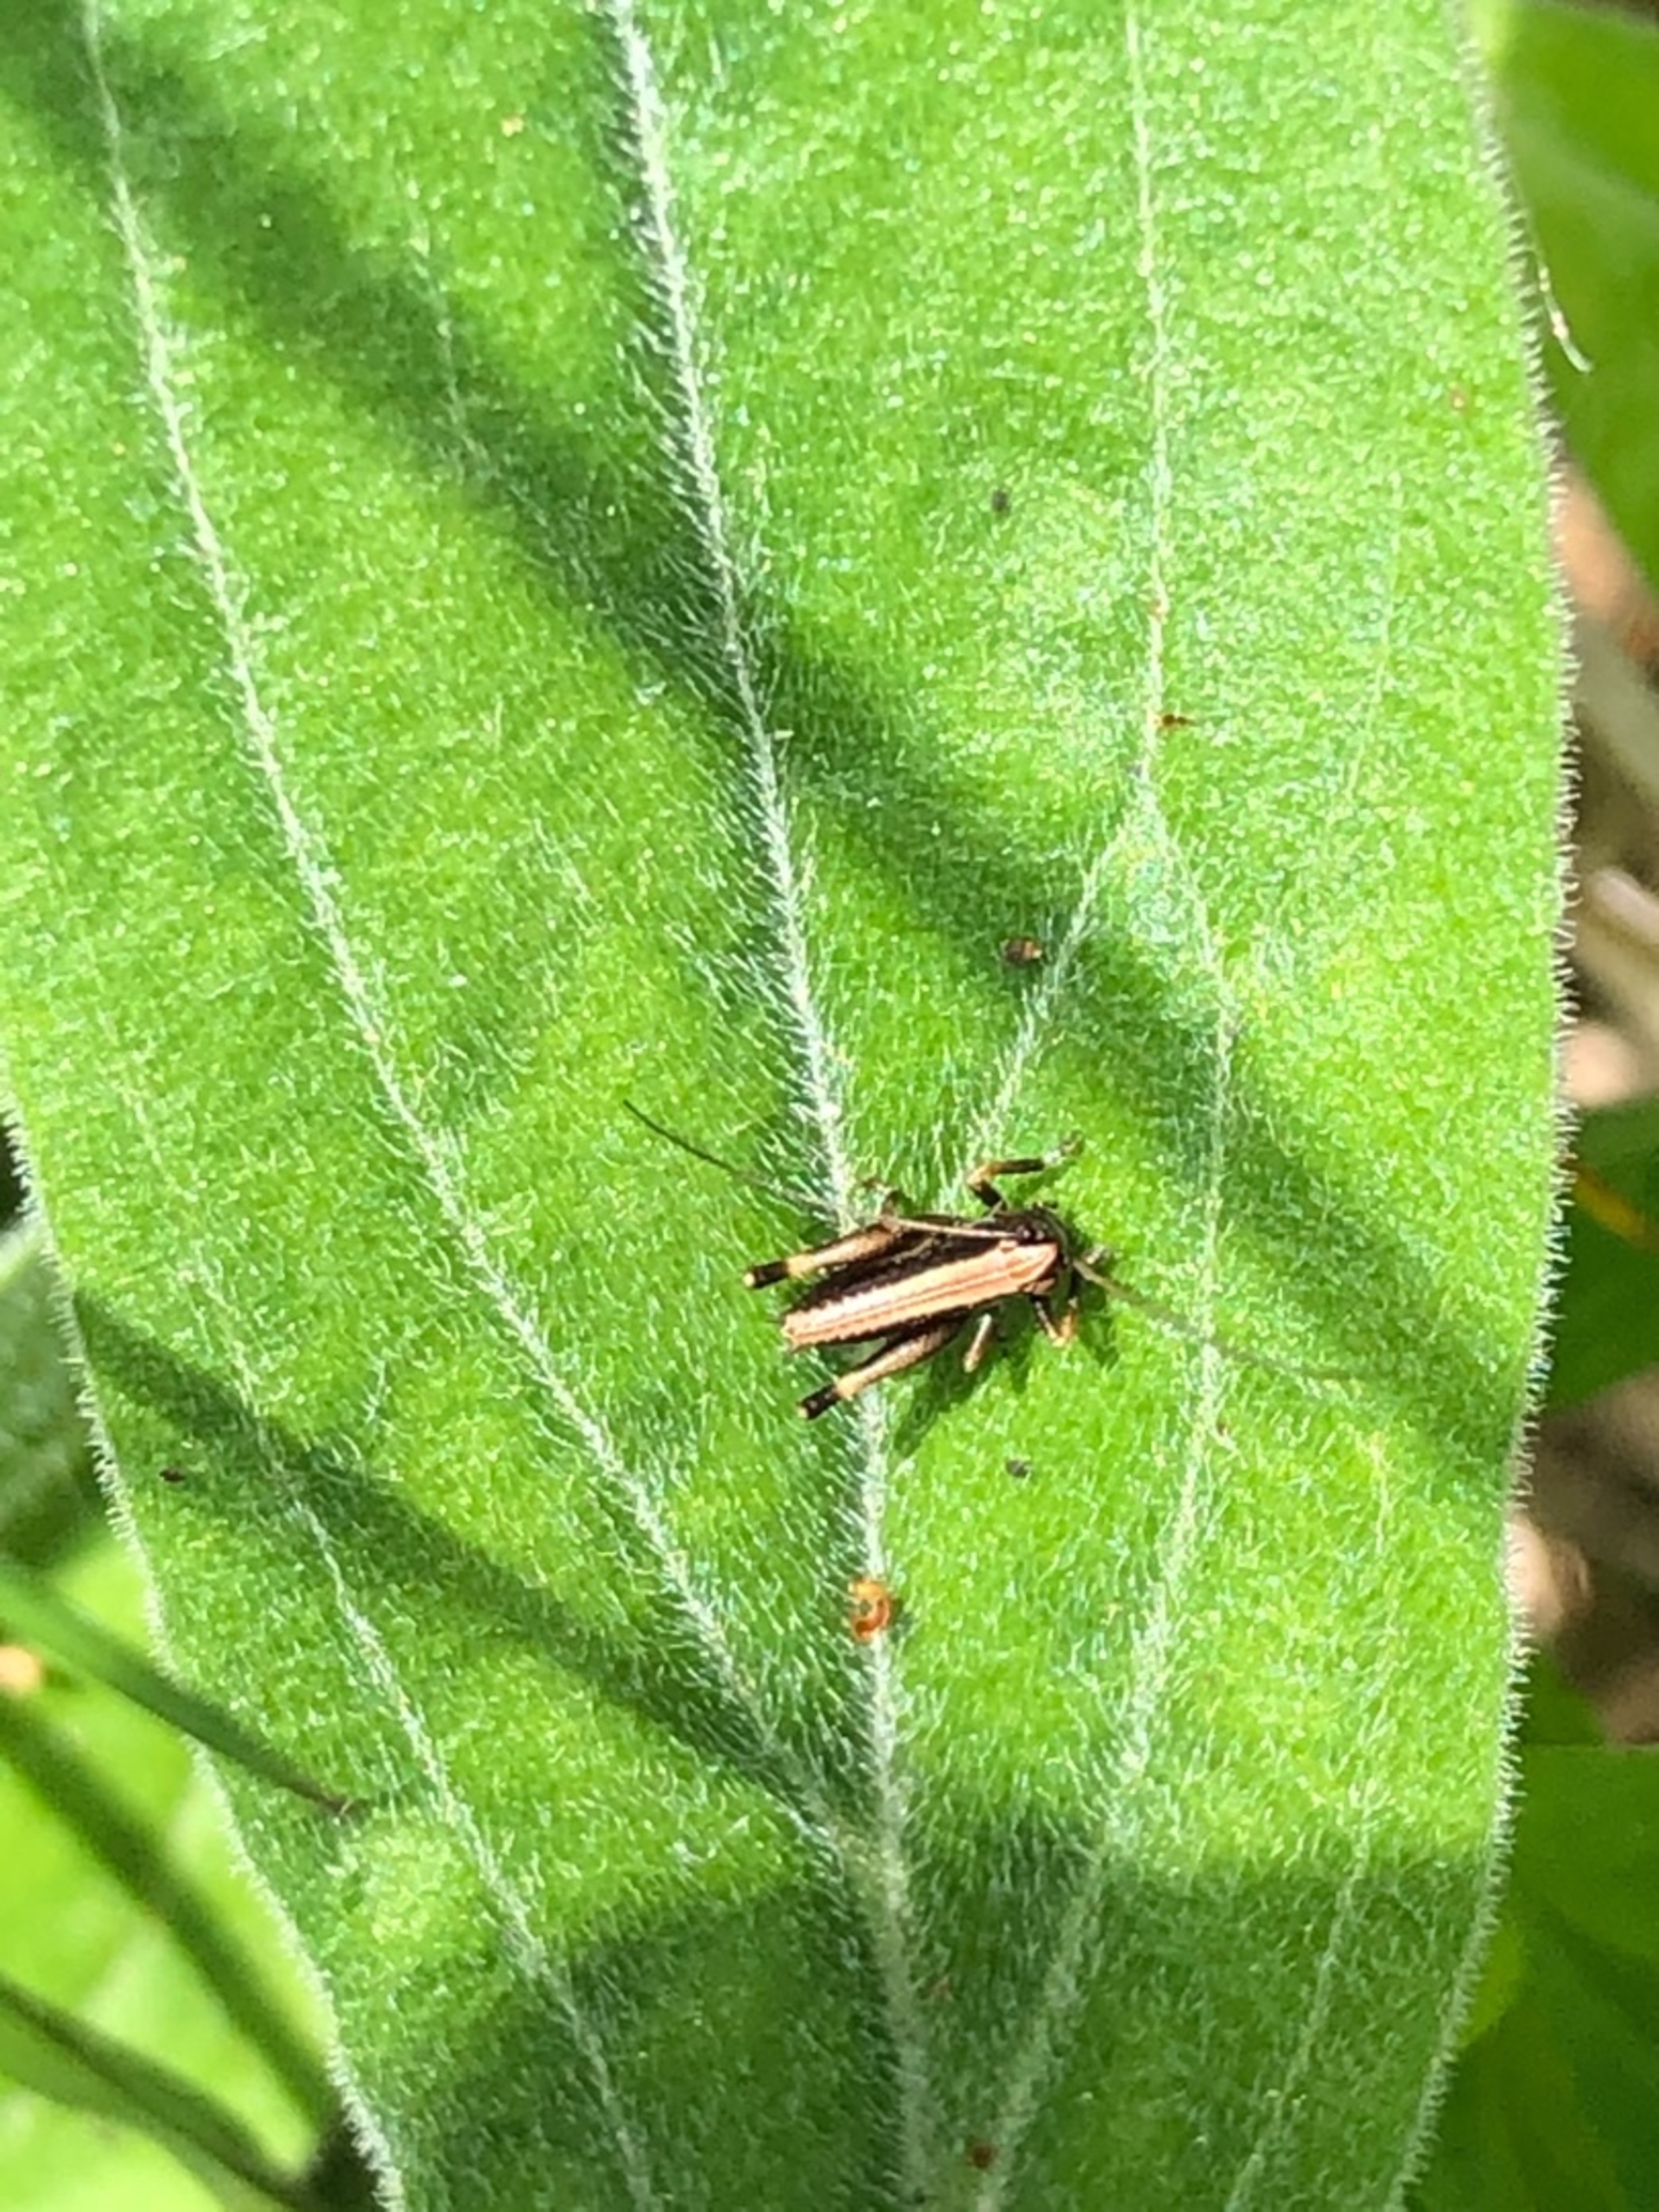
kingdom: Animalia
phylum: Arthropoda
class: Insecta
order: Orthoptera
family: Tettigoniidae
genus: Pholidoptera
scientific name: Pholidoptera griseoaptera
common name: Buskgræshoppe
